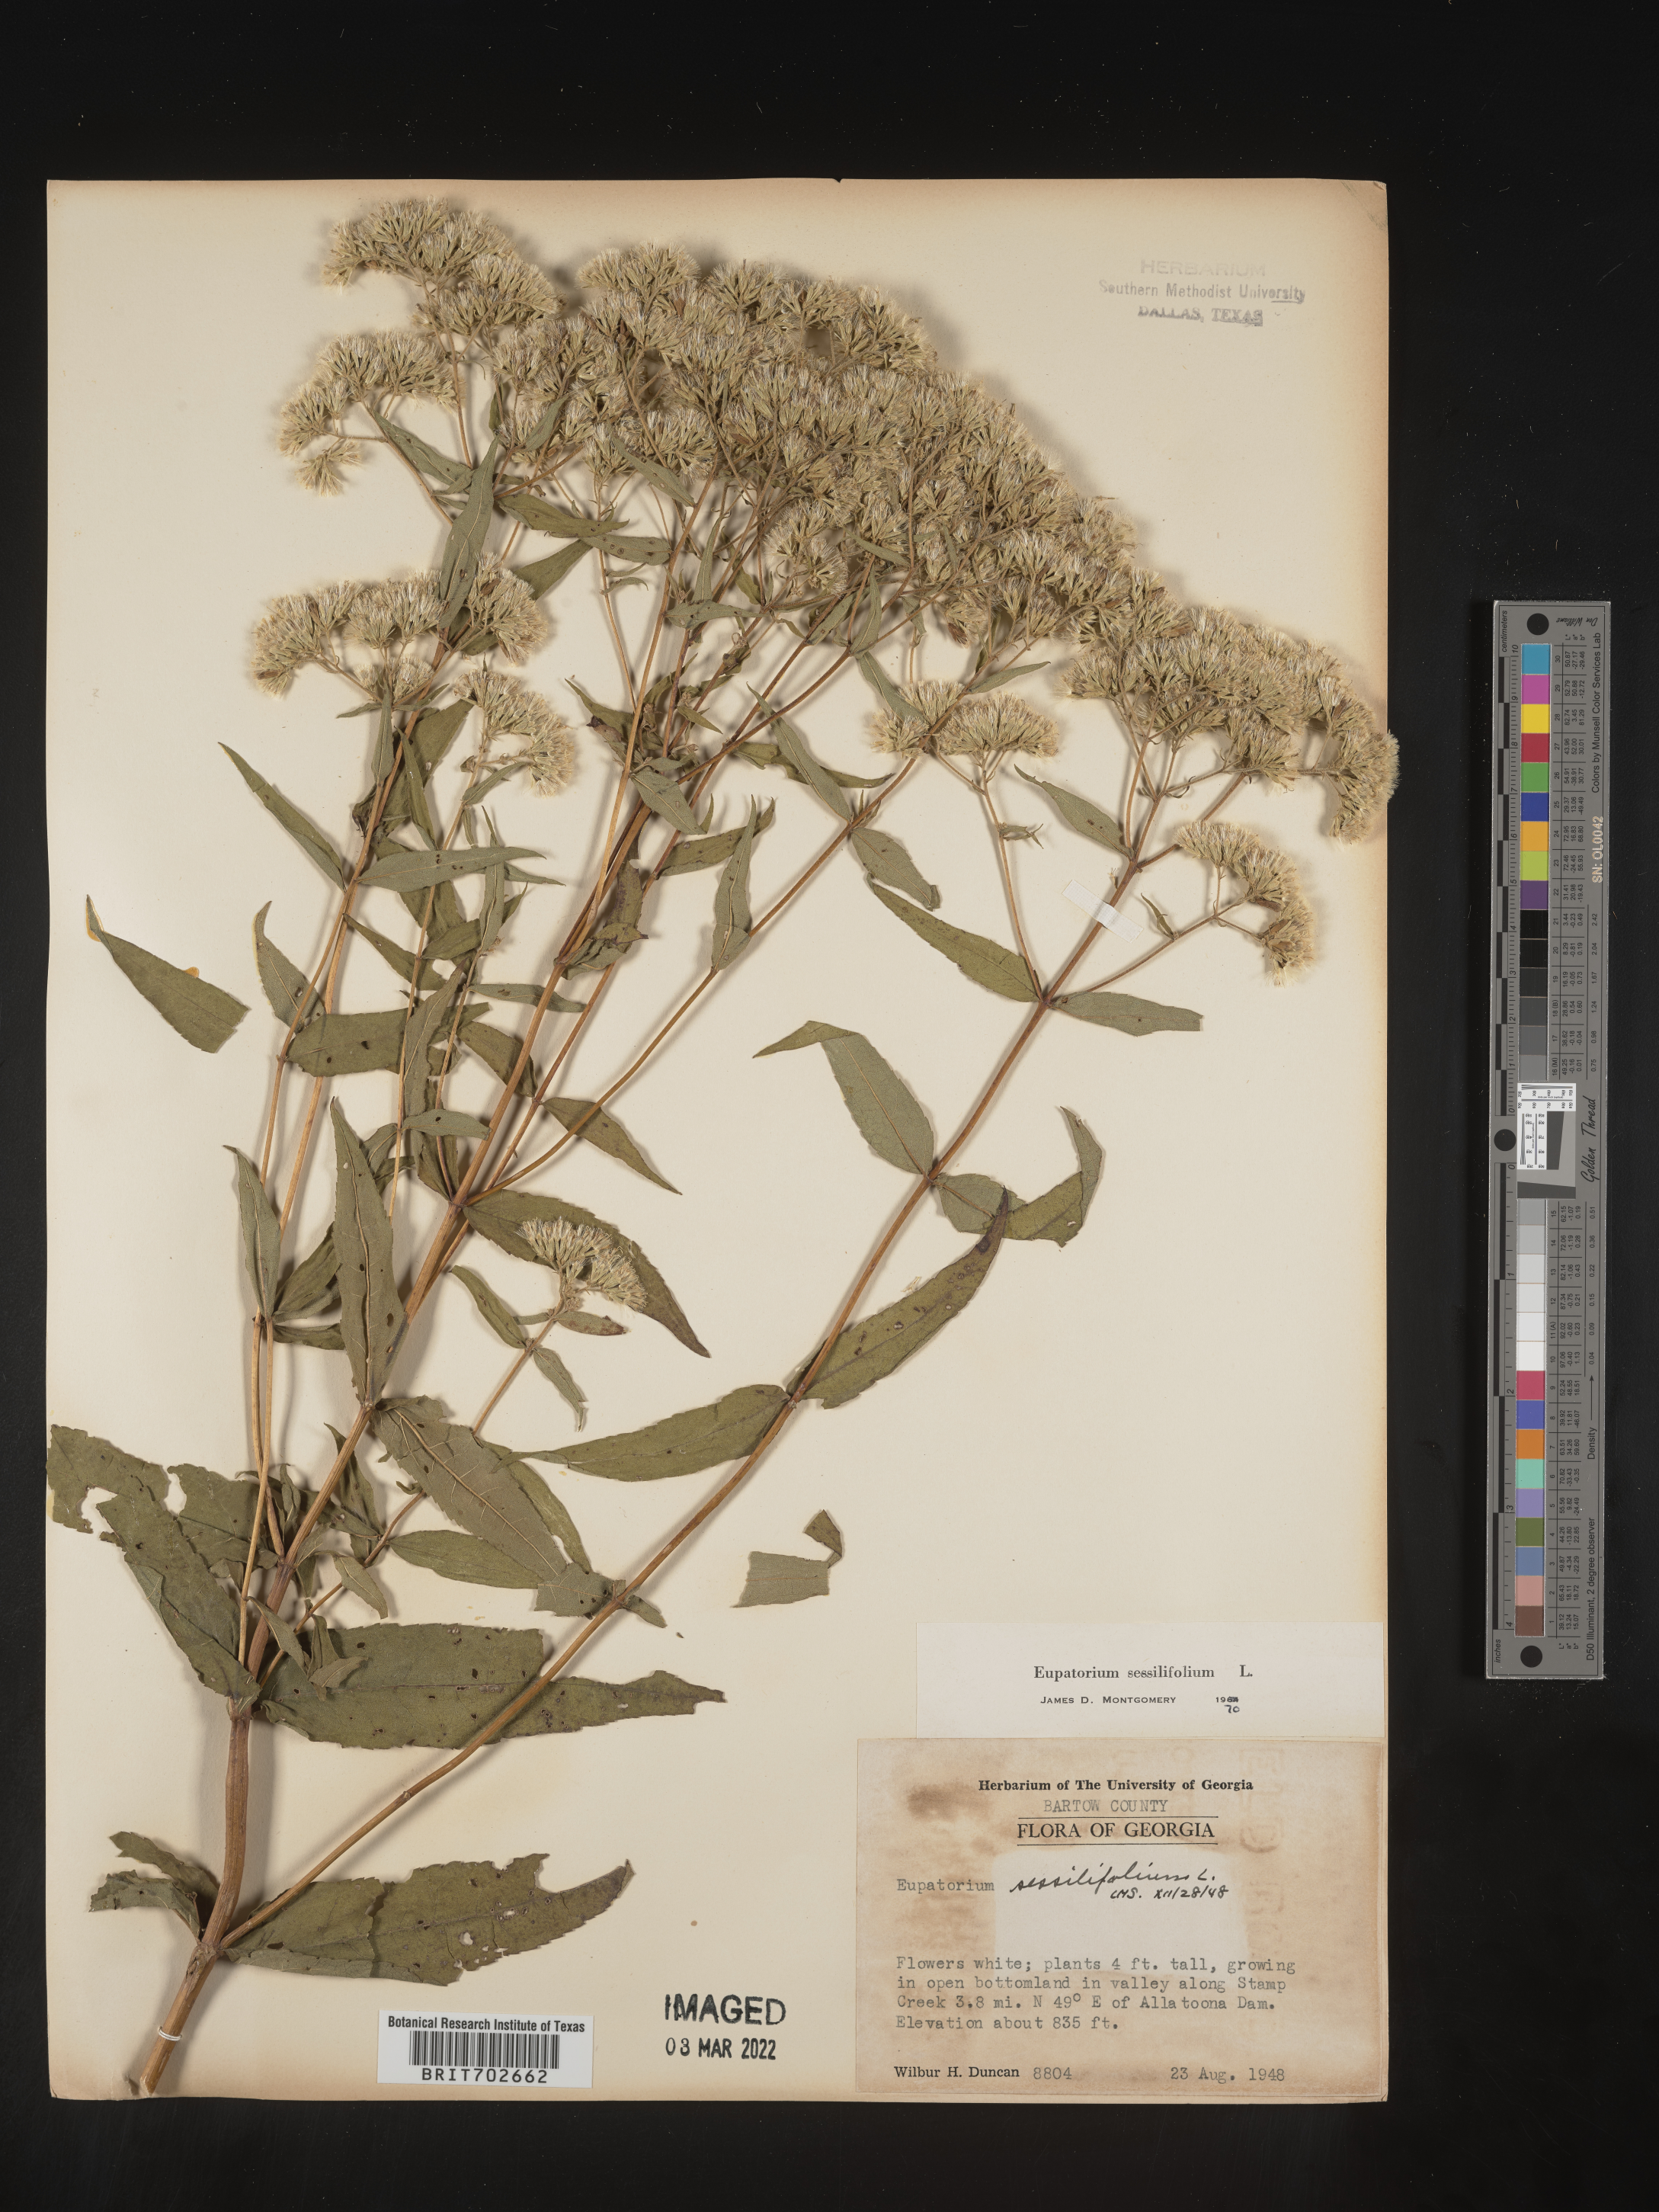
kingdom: Plantae
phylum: Tracheophyta
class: Magnoliopsida
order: Asterales
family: Asteraceae
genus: Eupatorium
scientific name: Eupatorium sessilifolium
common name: Upland boneset
